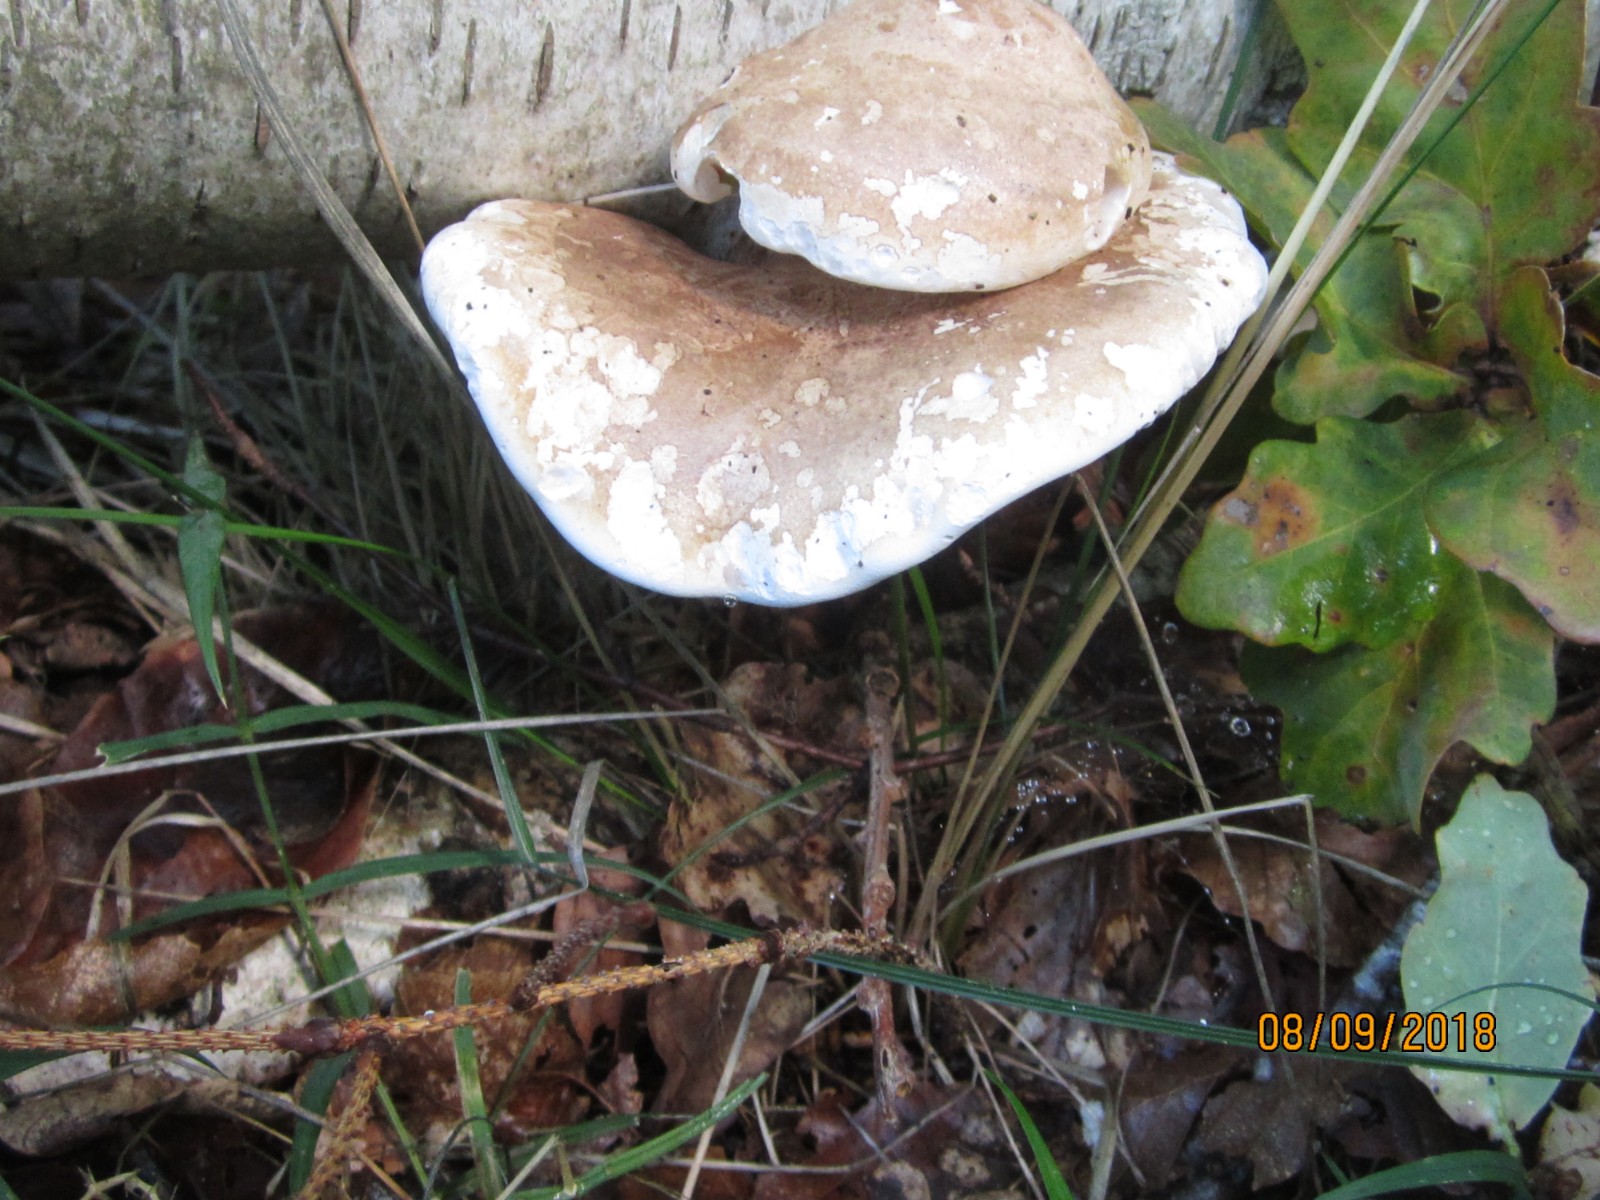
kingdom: Fungi
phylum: Basidiomycota
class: Agaricomycetes
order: Polyporales
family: Fomitopsidaceae
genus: Fomitopsis
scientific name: Fomitopsis betulina
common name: birkeporesvamp
